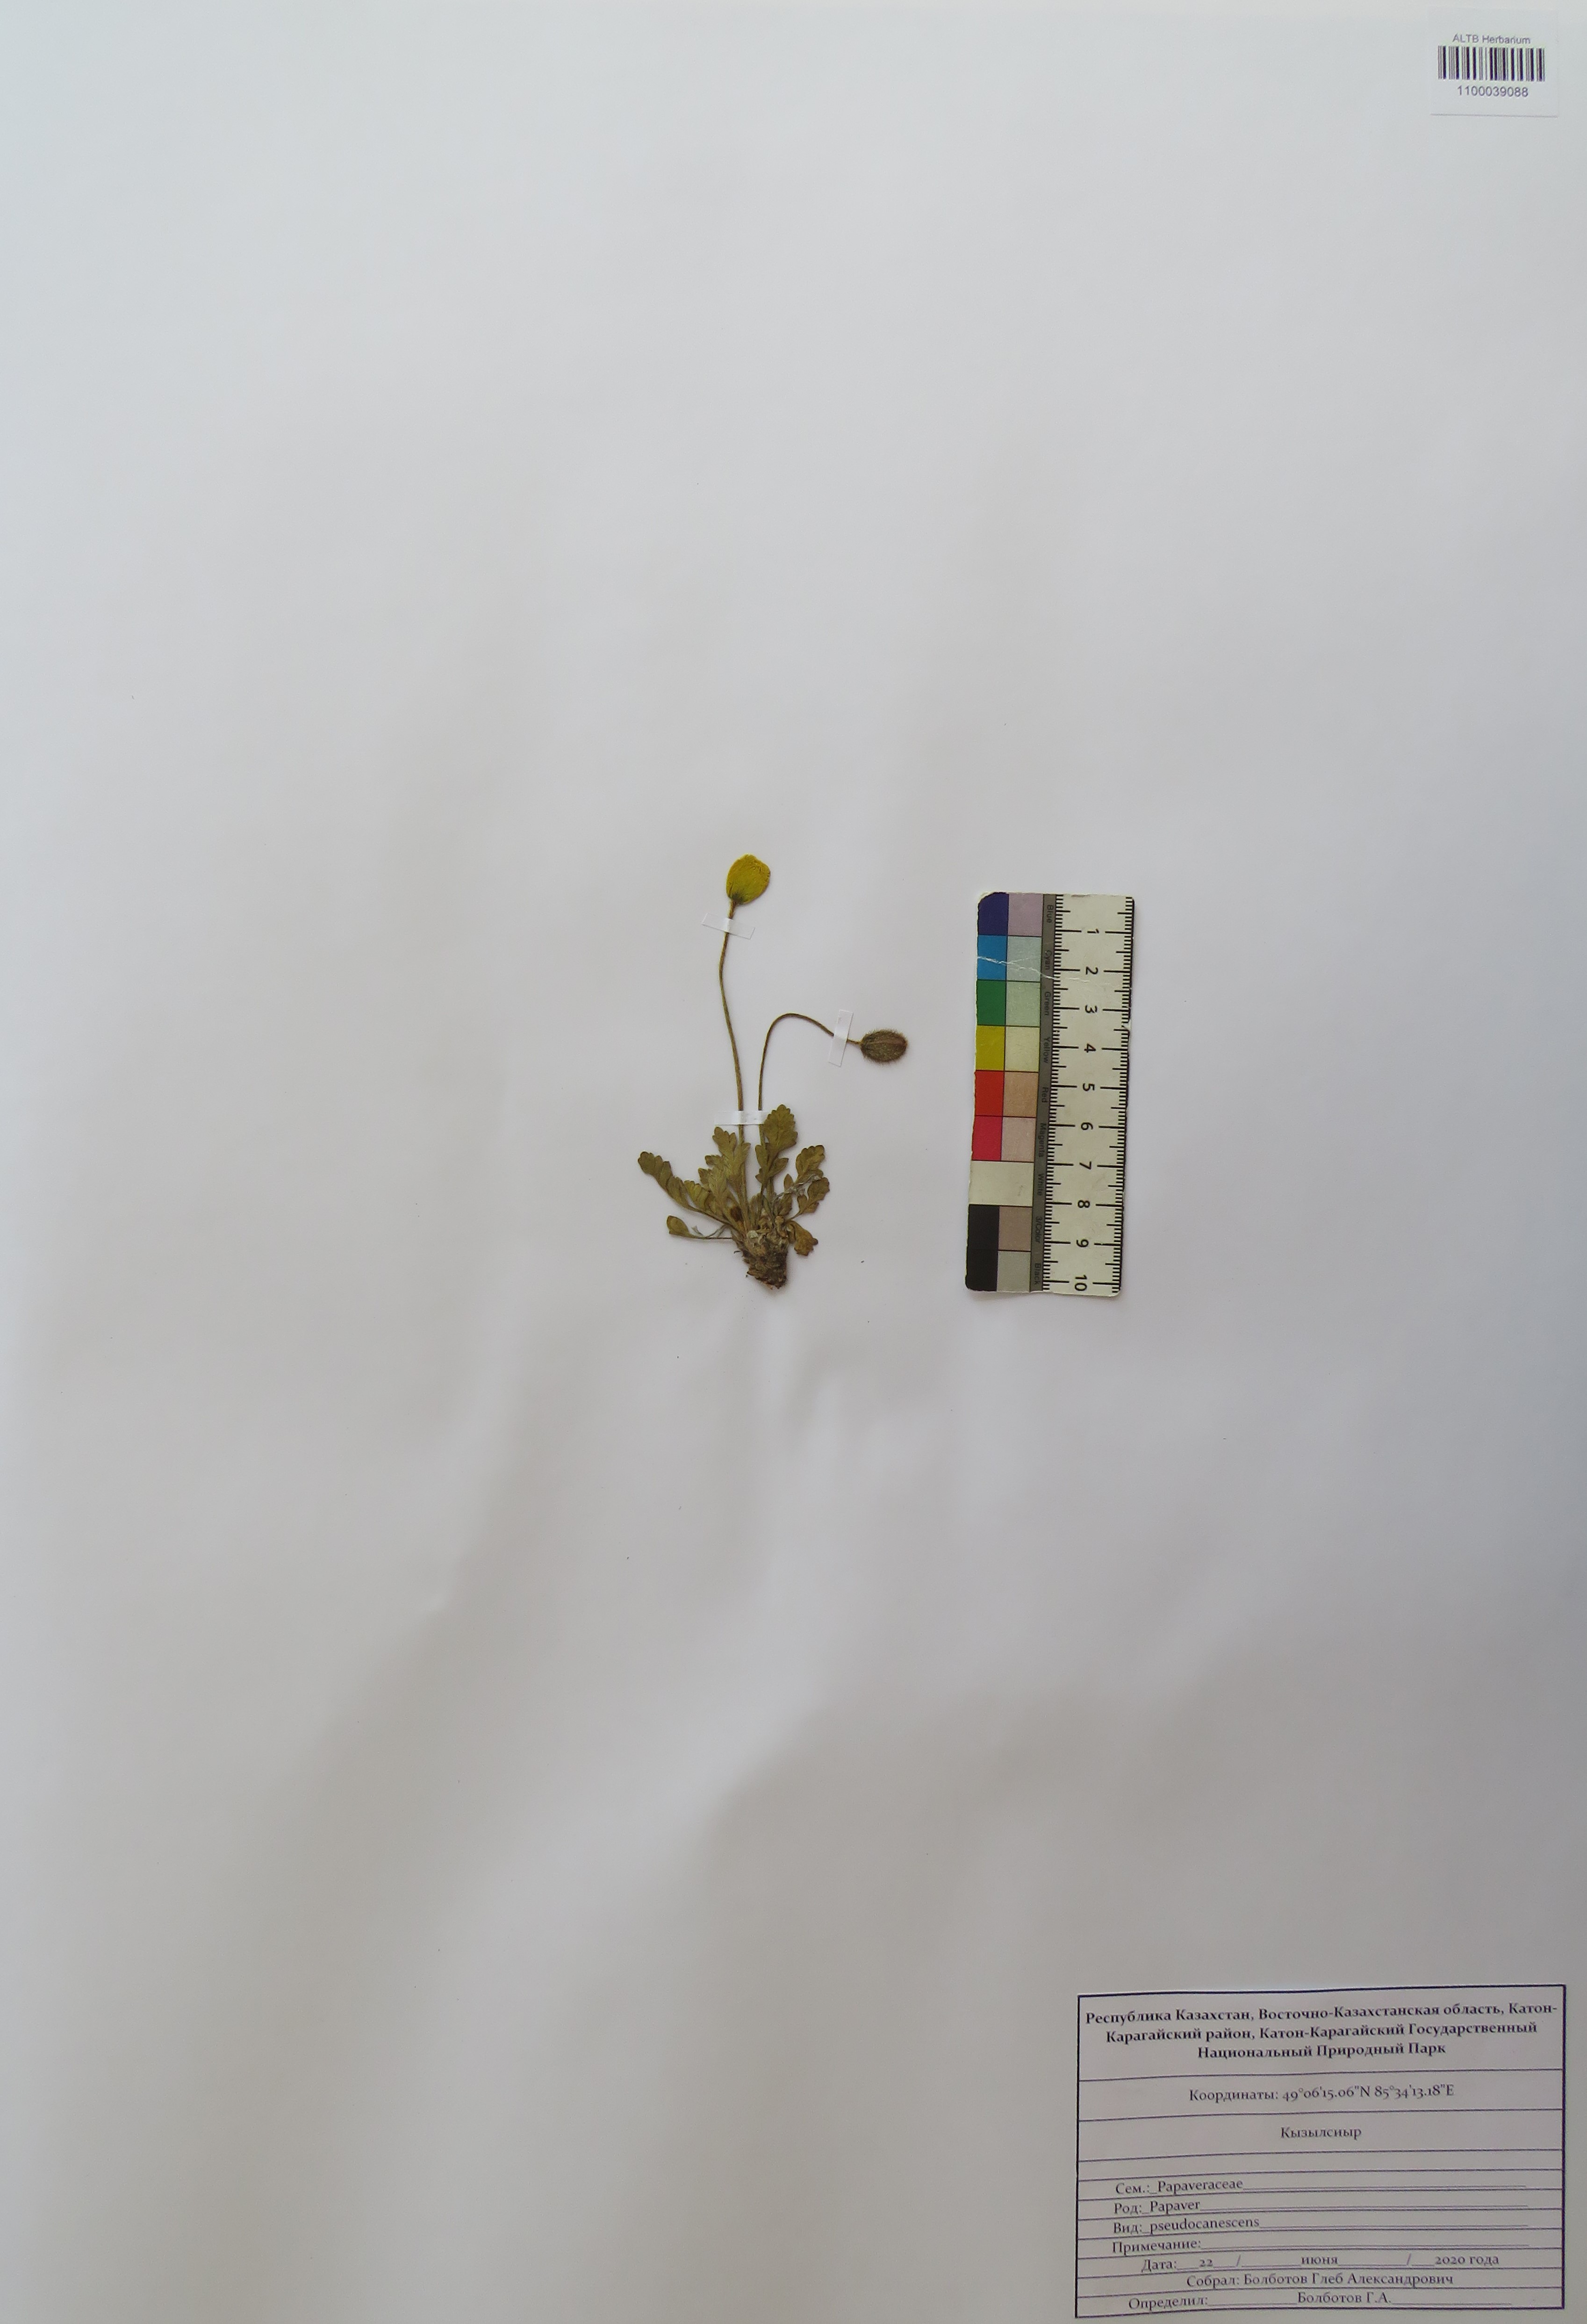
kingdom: Plantae
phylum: Tracheophyta
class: Magnoliopsida
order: Ranunculales
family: Papaveraceae
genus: Papaver
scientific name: Papaver canescens
